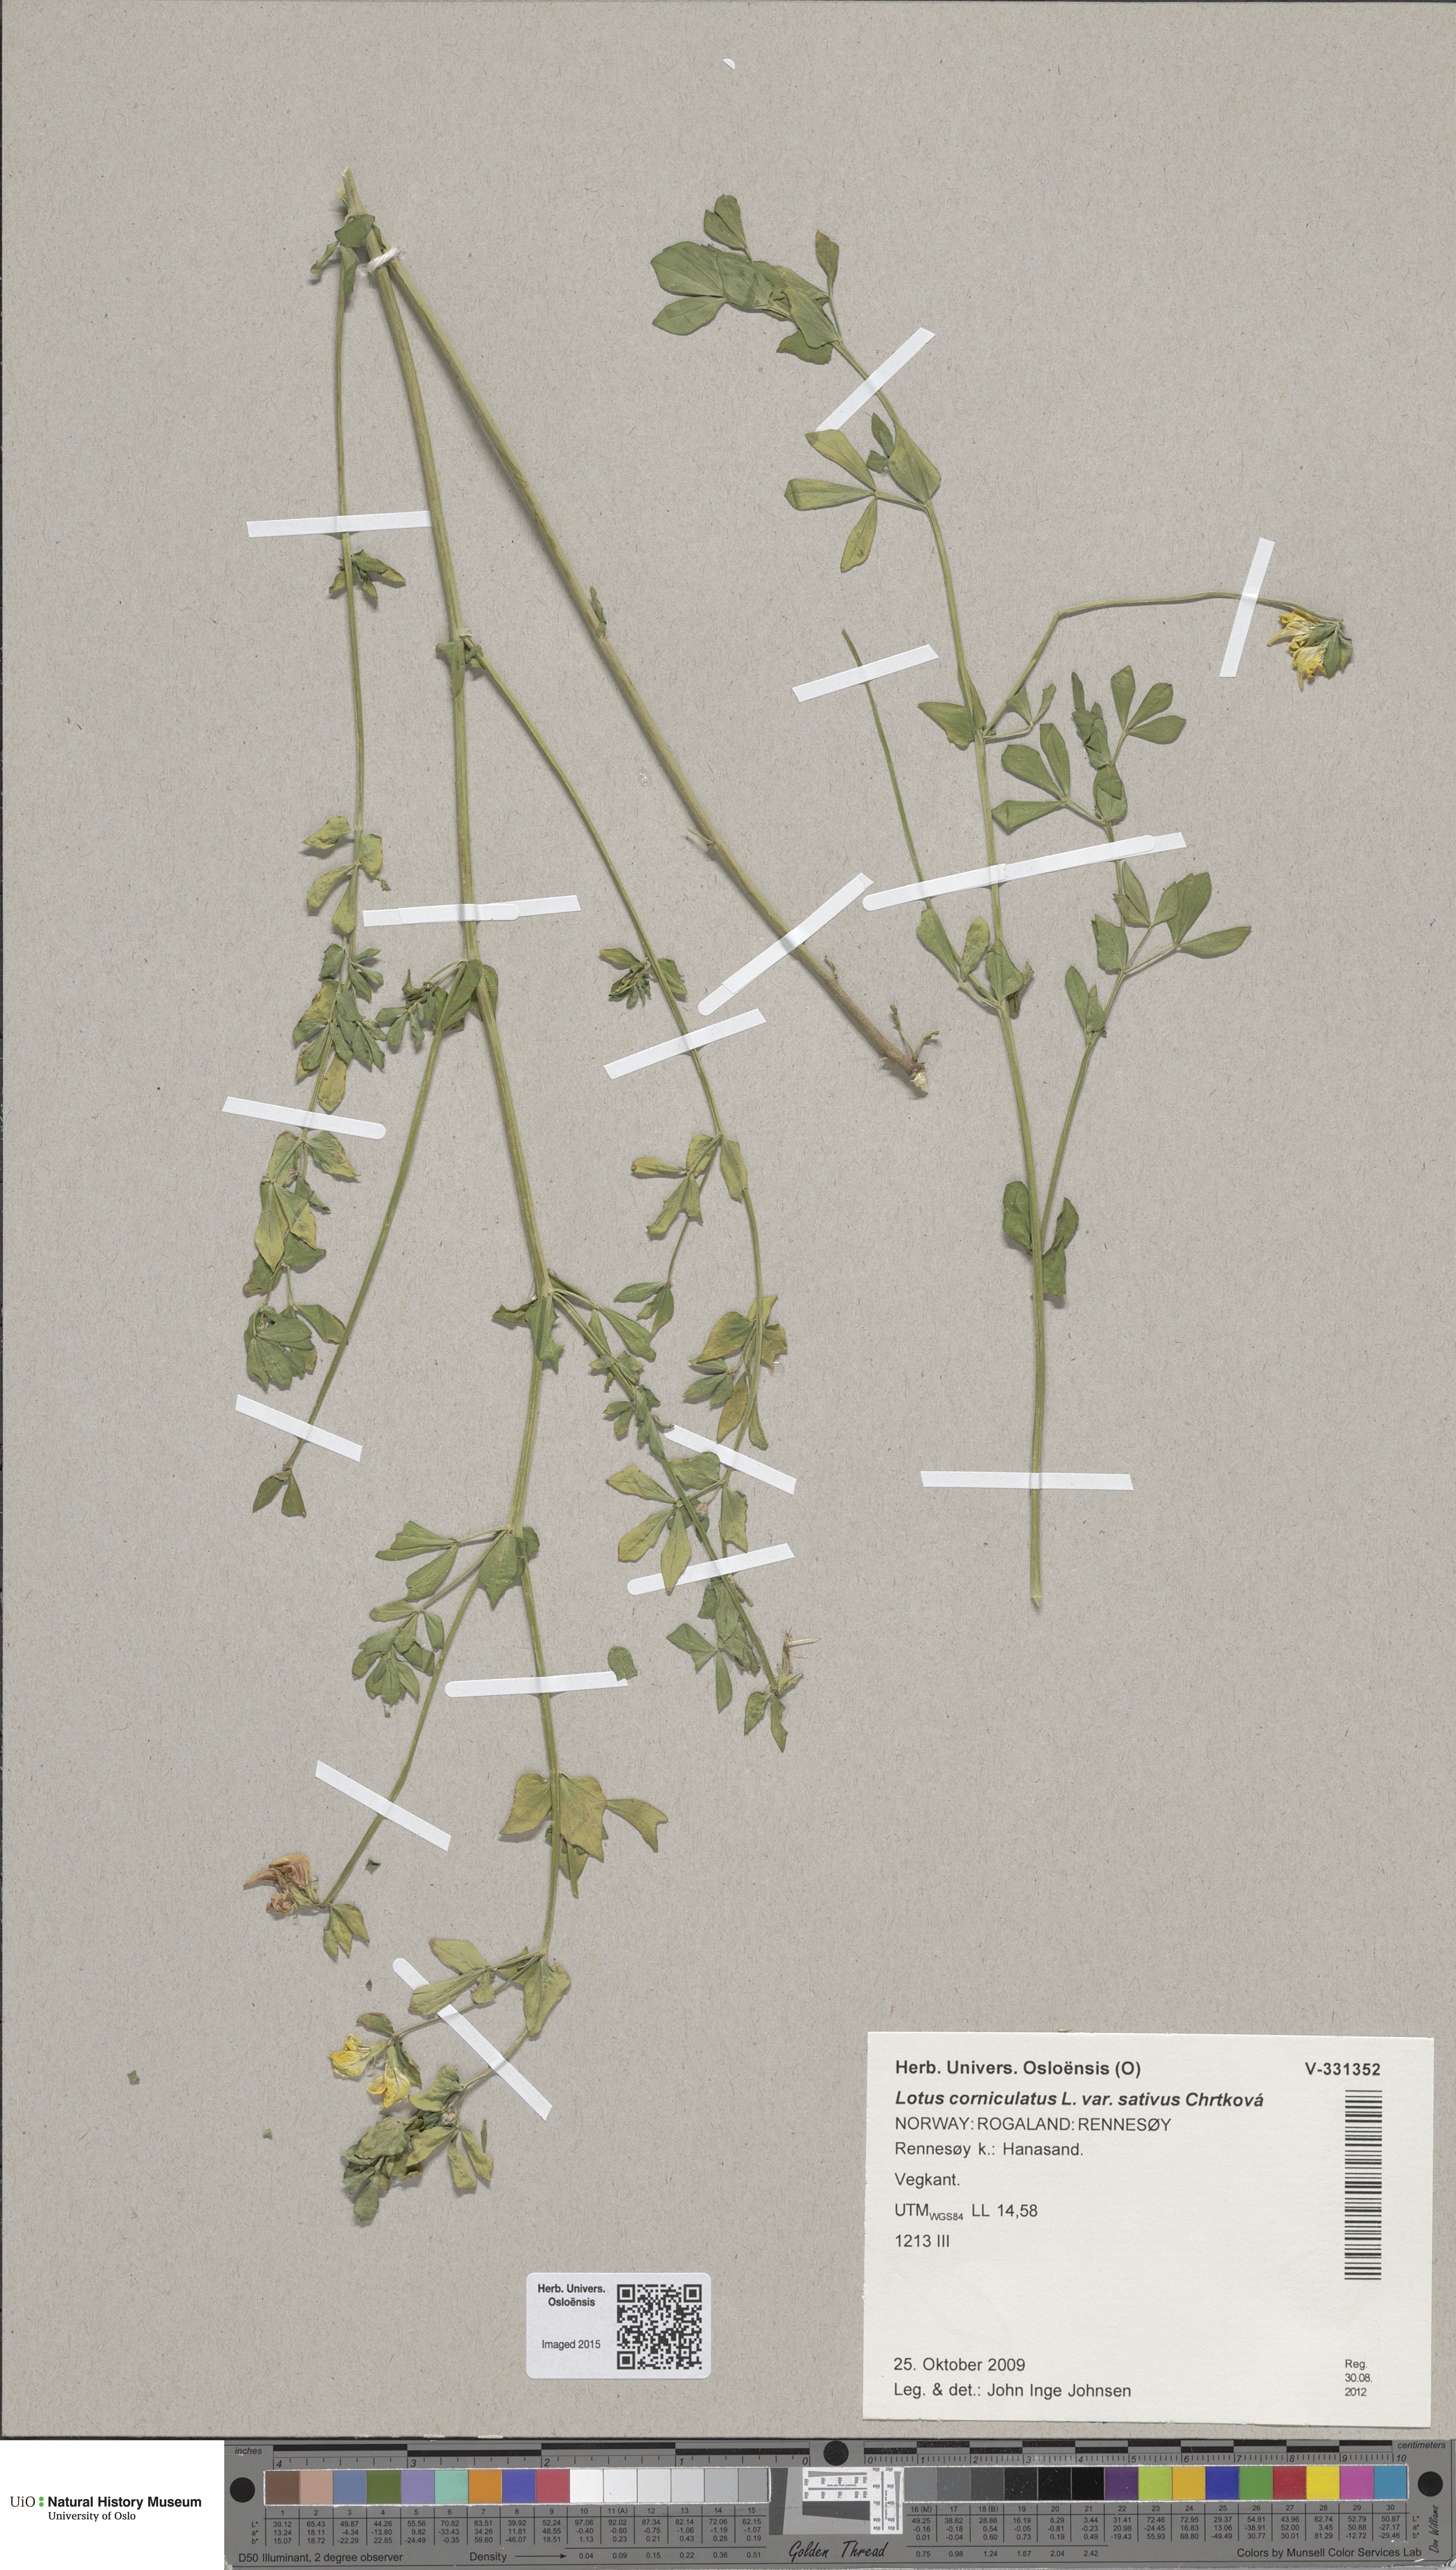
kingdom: Plantae
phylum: Tracheophyta
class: Magnoliopsida
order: Fabales
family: Fabaceae
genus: Lotus
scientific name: Lotus corniculatus
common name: Common bird's-foot-trefoil
